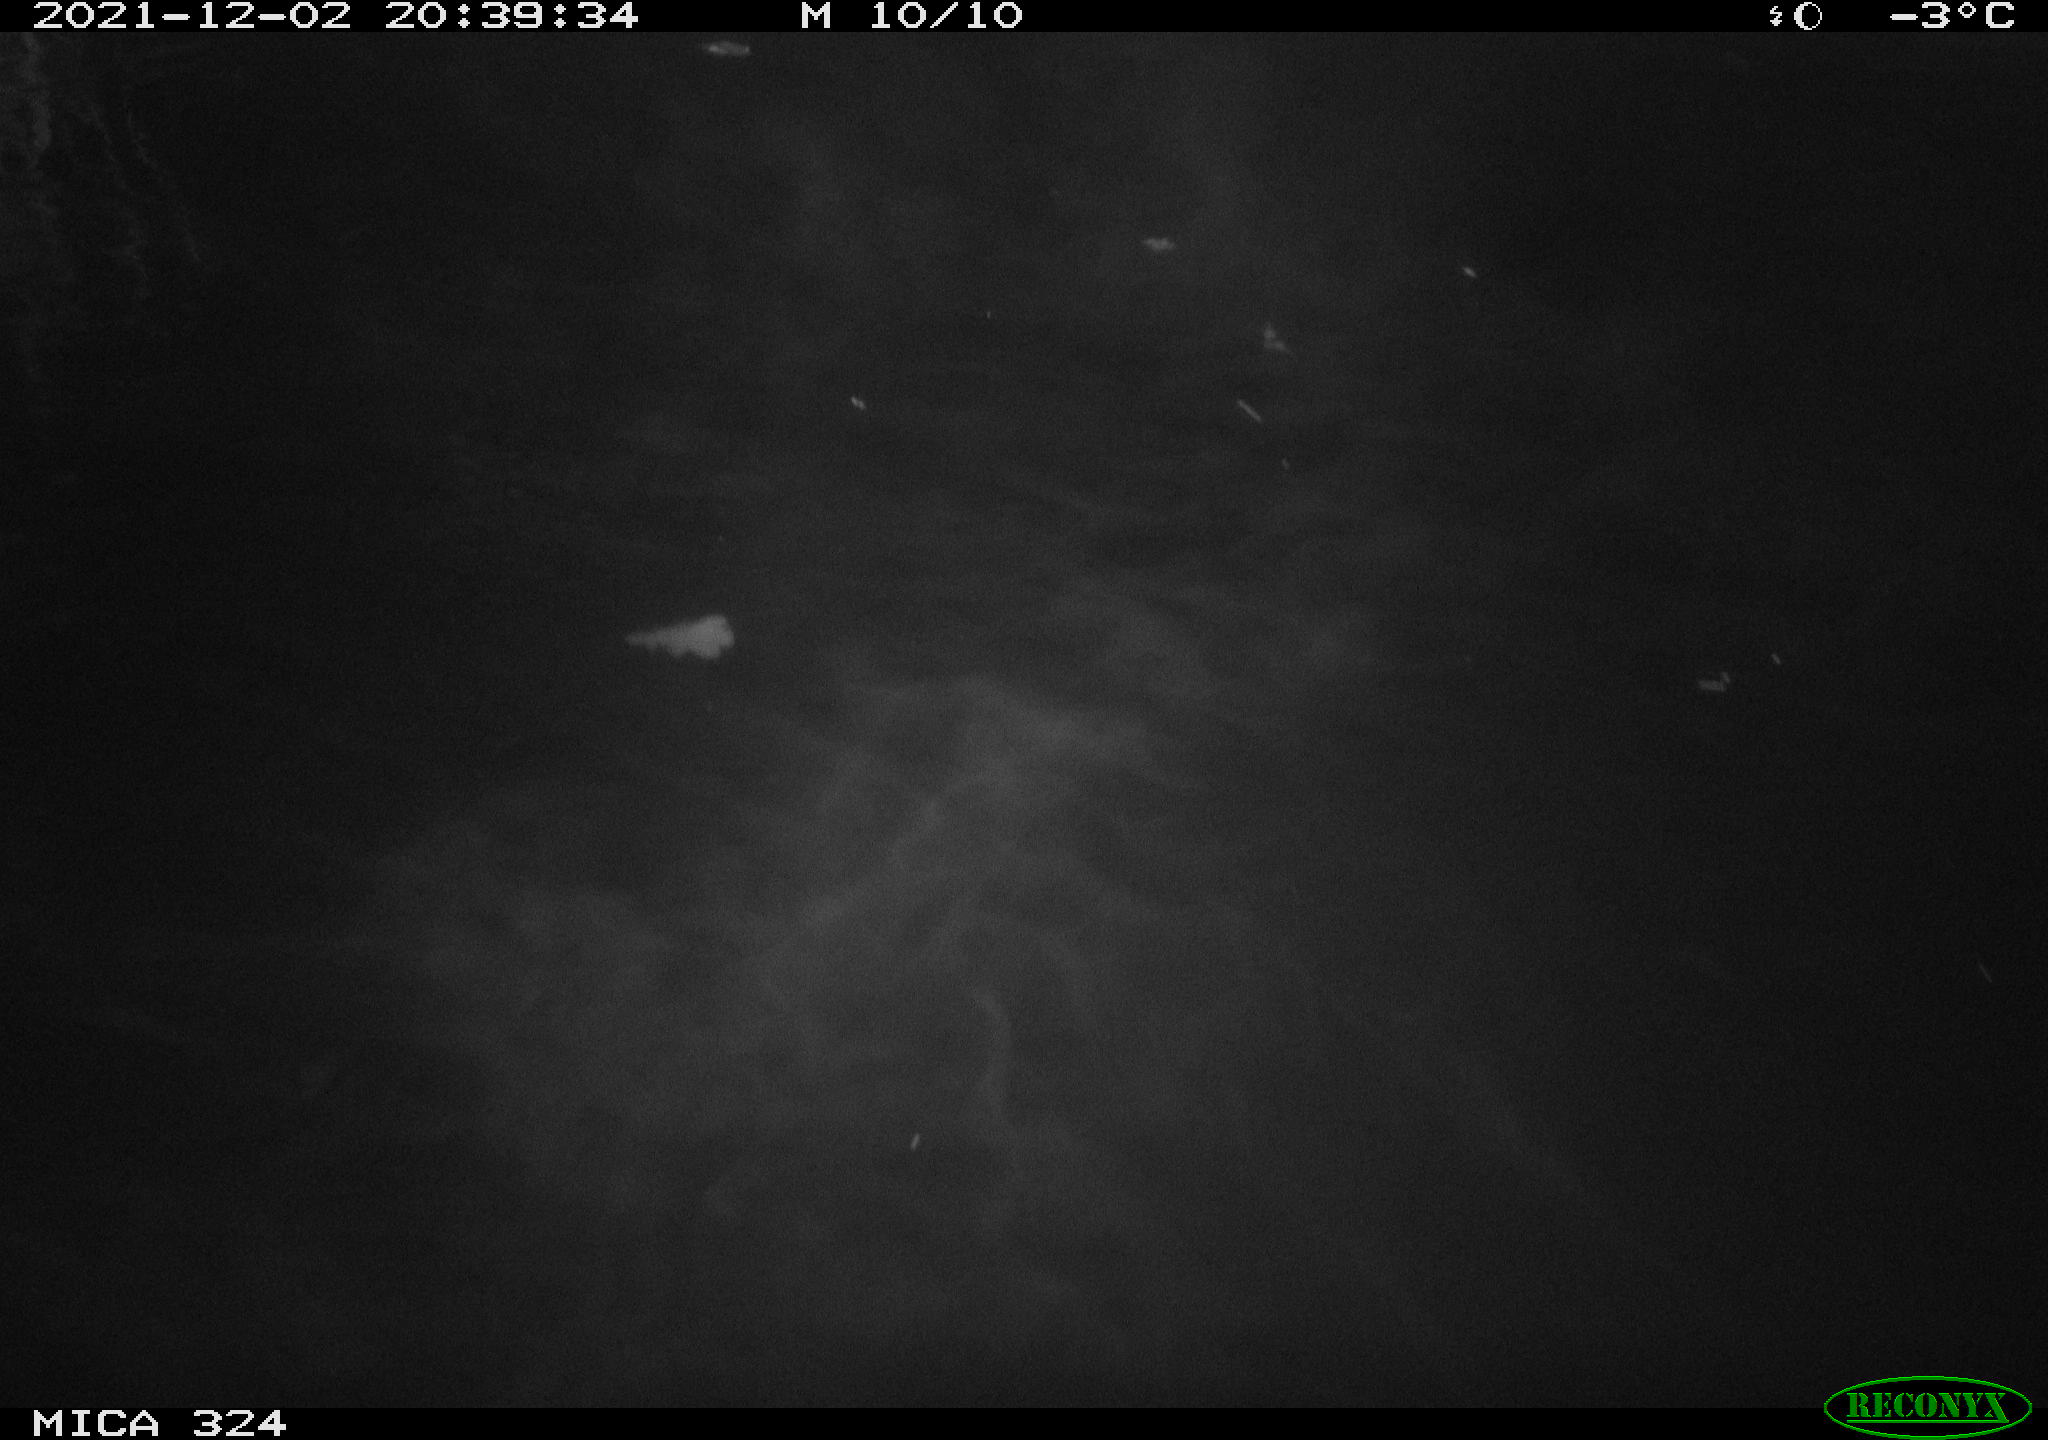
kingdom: Animalia
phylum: Chordata
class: Mammalia
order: Rodentia
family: Cricetidae
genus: Ondatra
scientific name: Ondatra zibethicus
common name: Muskrat
